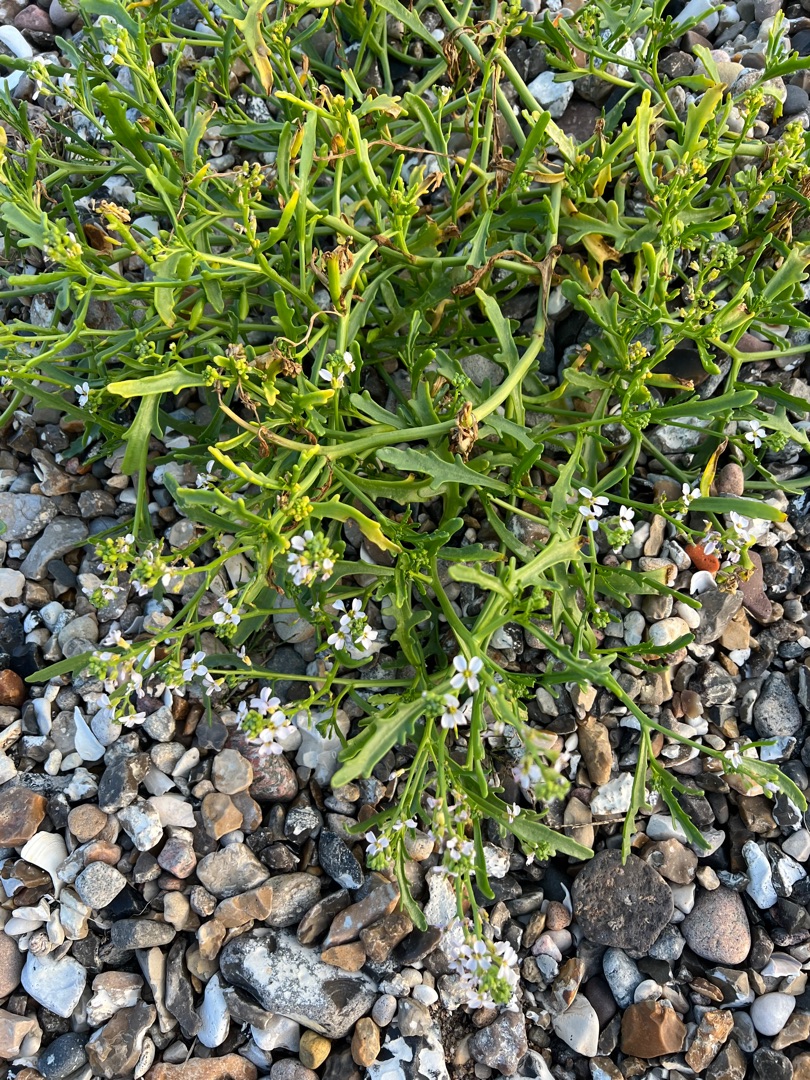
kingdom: Plantae
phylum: Tracheophyta
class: Magnoliopsida
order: Brassicales
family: Brassicaceae
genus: Cakile
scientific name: Cakile maritima
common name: Strandsennep
